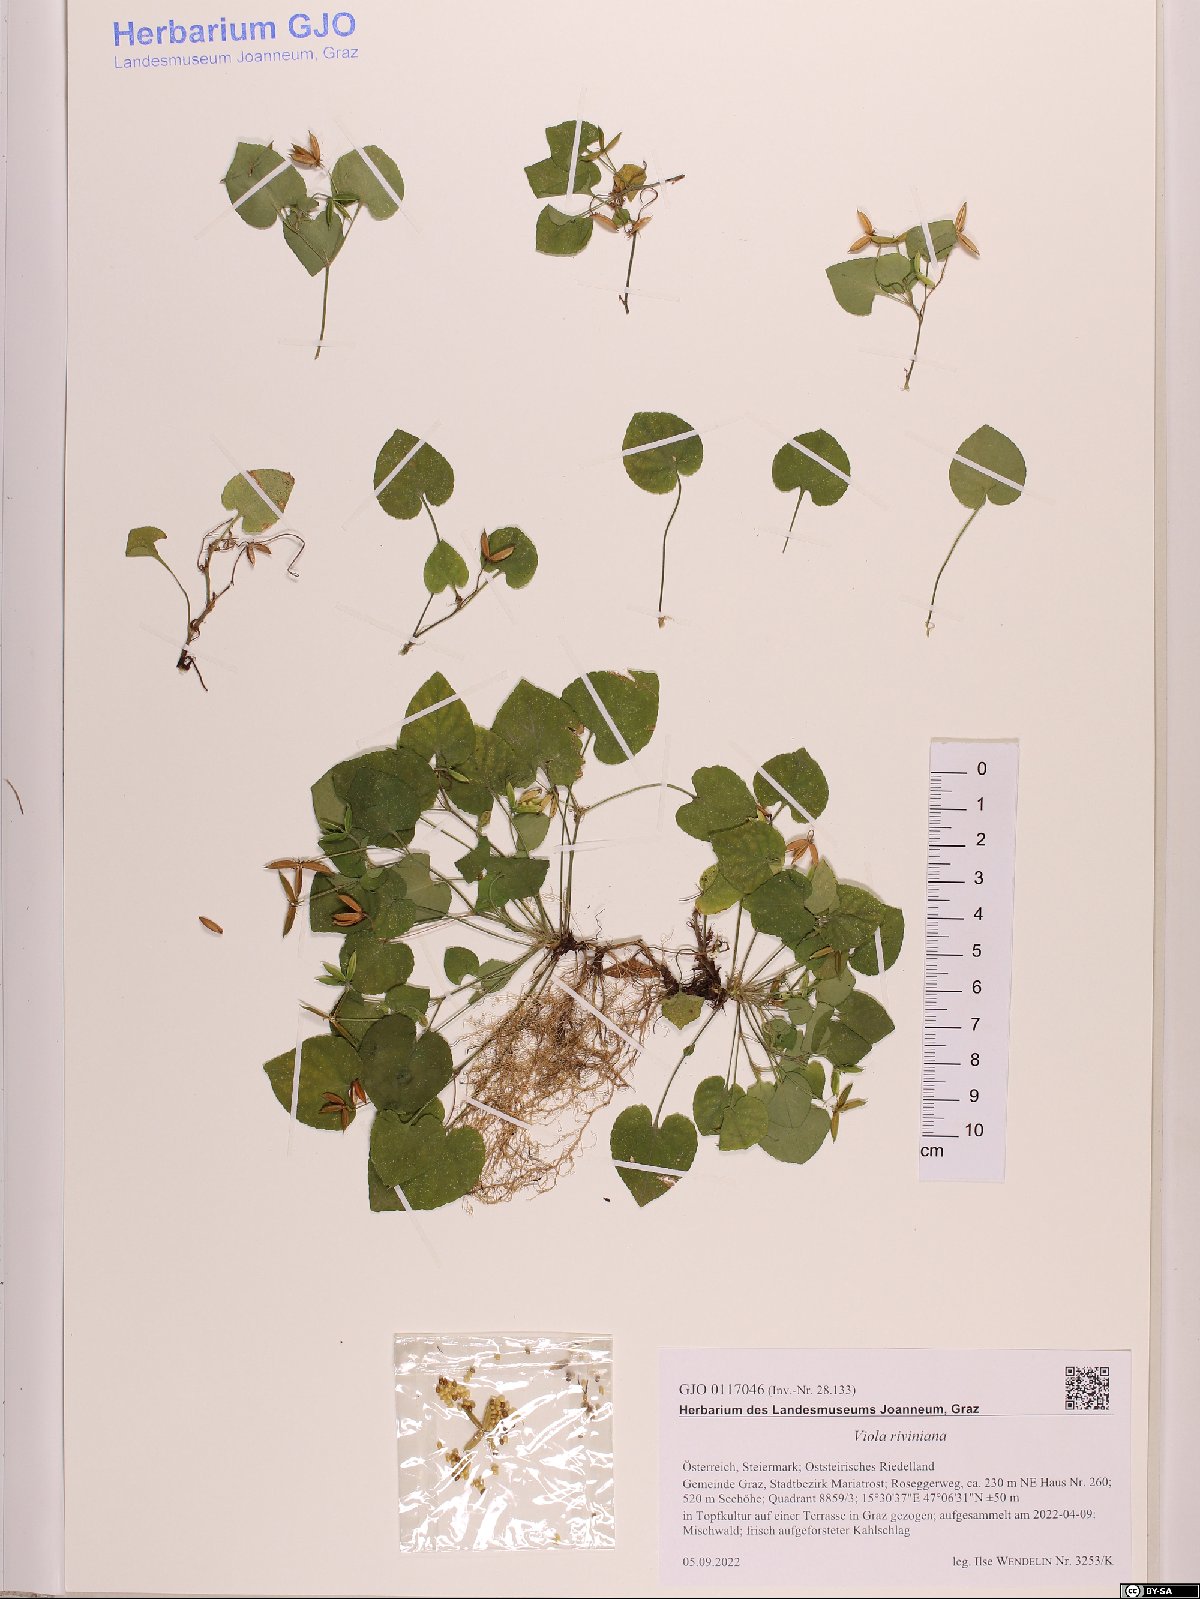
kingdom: Plantae
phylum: Tracheophyta
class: Magnoliopsida
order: Malpighiales
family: Violaceae
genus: Viola
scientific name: Viola riviniana
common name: Common dog-violet
